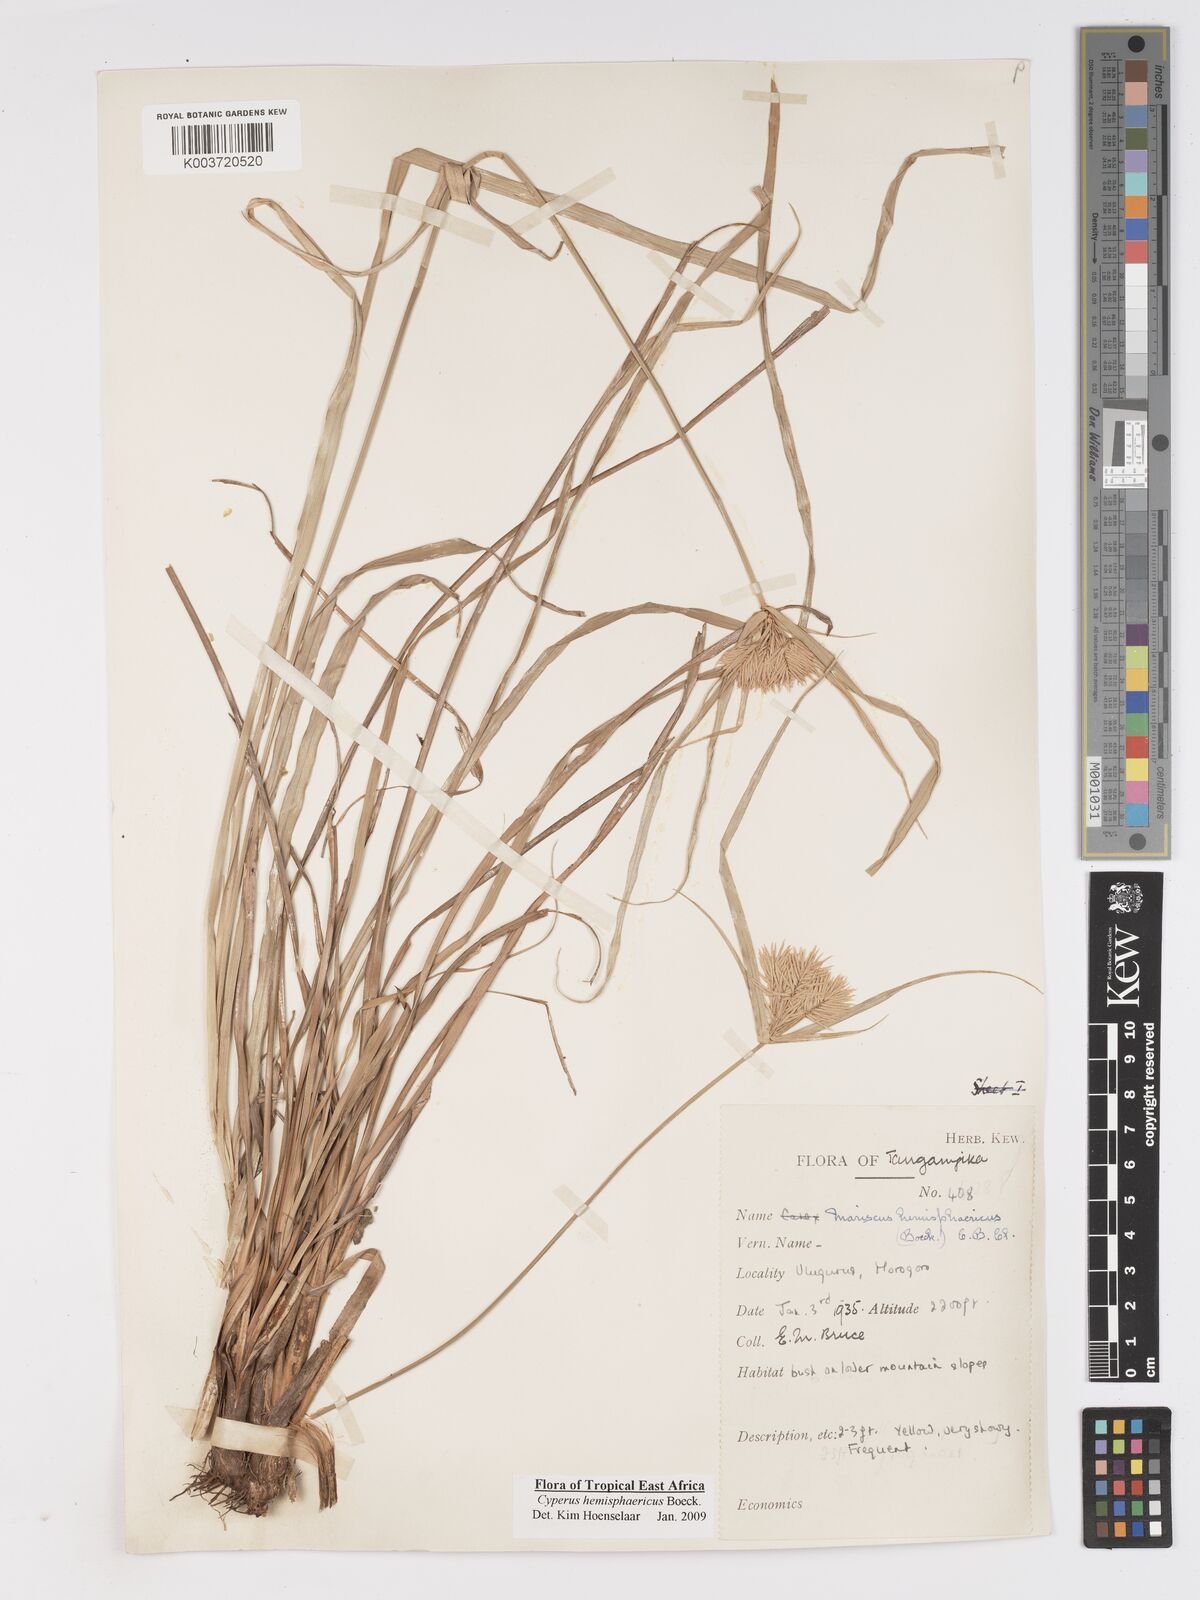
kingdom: Plantae
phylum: Tracheophyta
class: Liliopsida
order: Poales
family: Cyperaceae
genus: Cyperus
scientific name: Cyperus hemisphaericus
